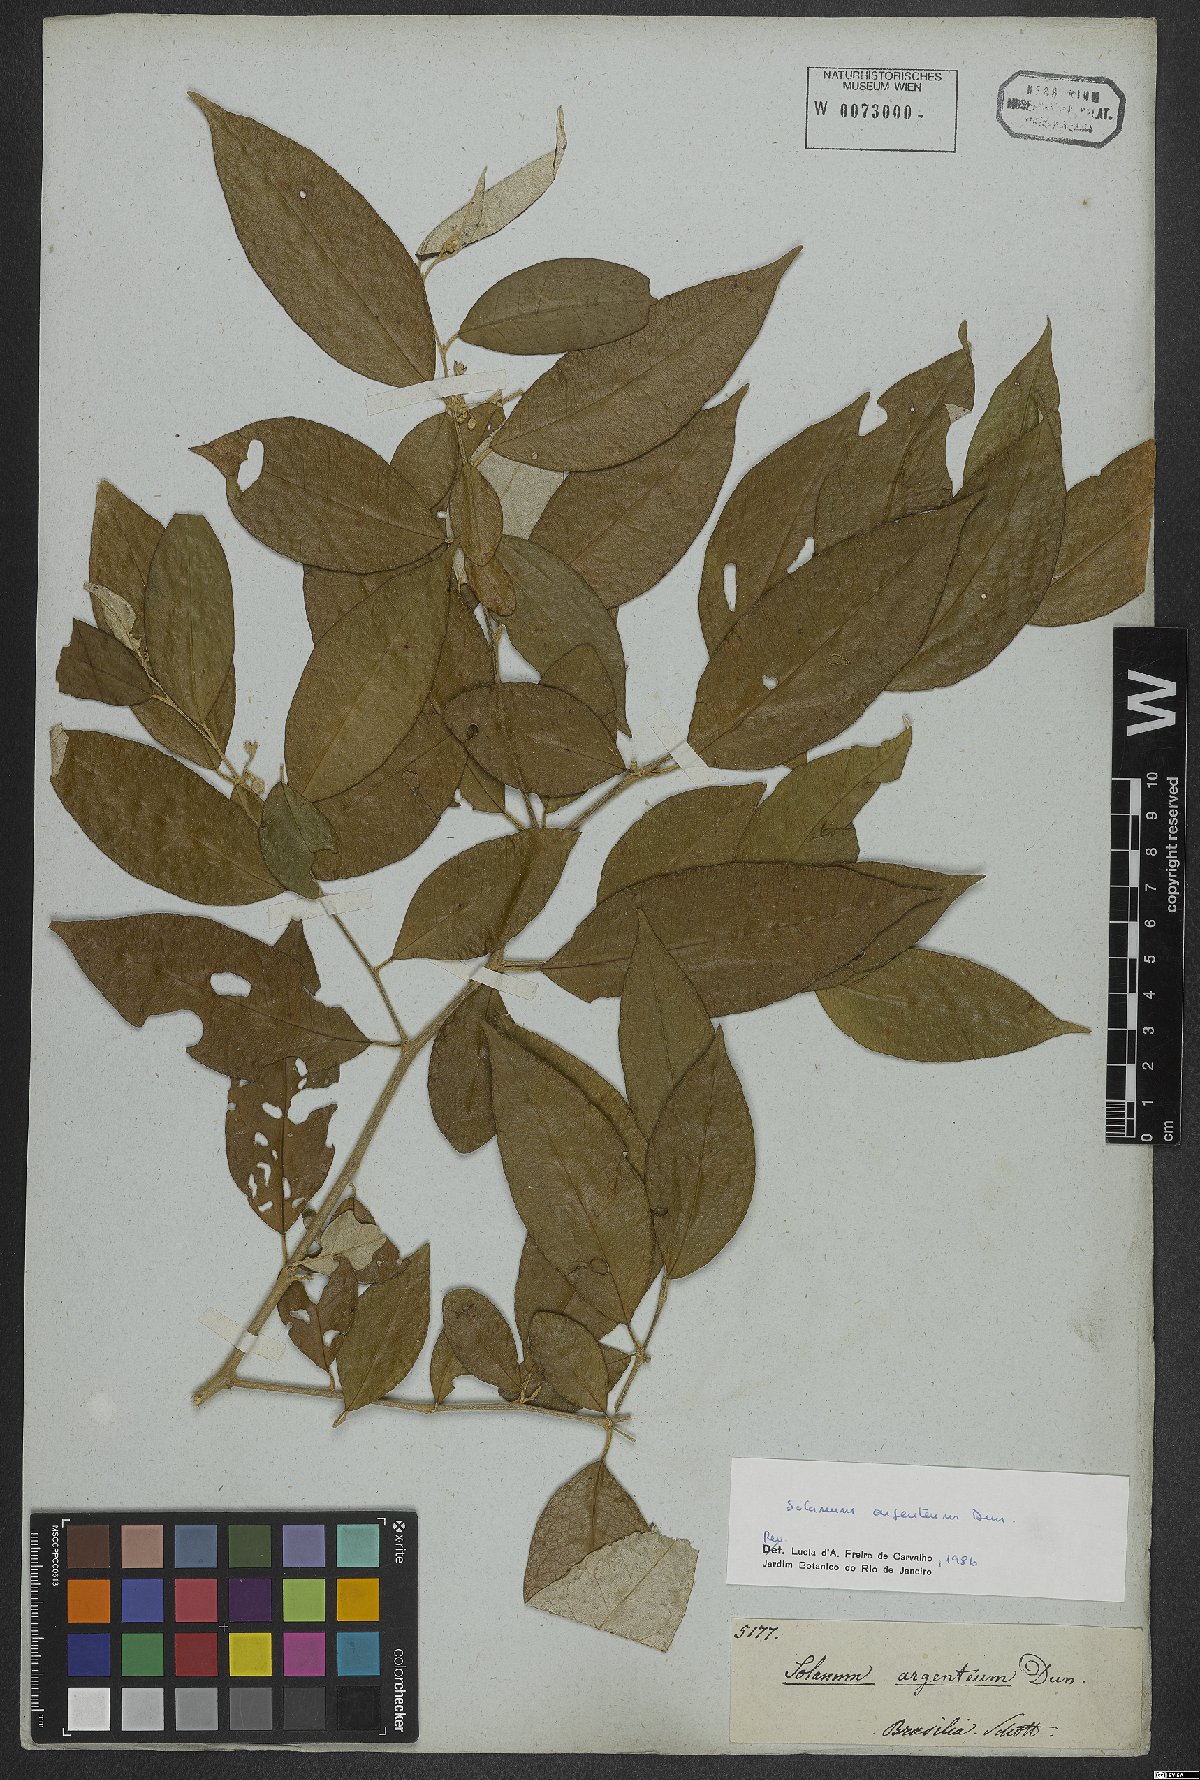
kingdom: Plantae
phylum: Tracheophyta
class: Magnoliopsida
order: Solanales
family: Solanaceae
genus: Solanum
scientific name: Solanum swartzianum
